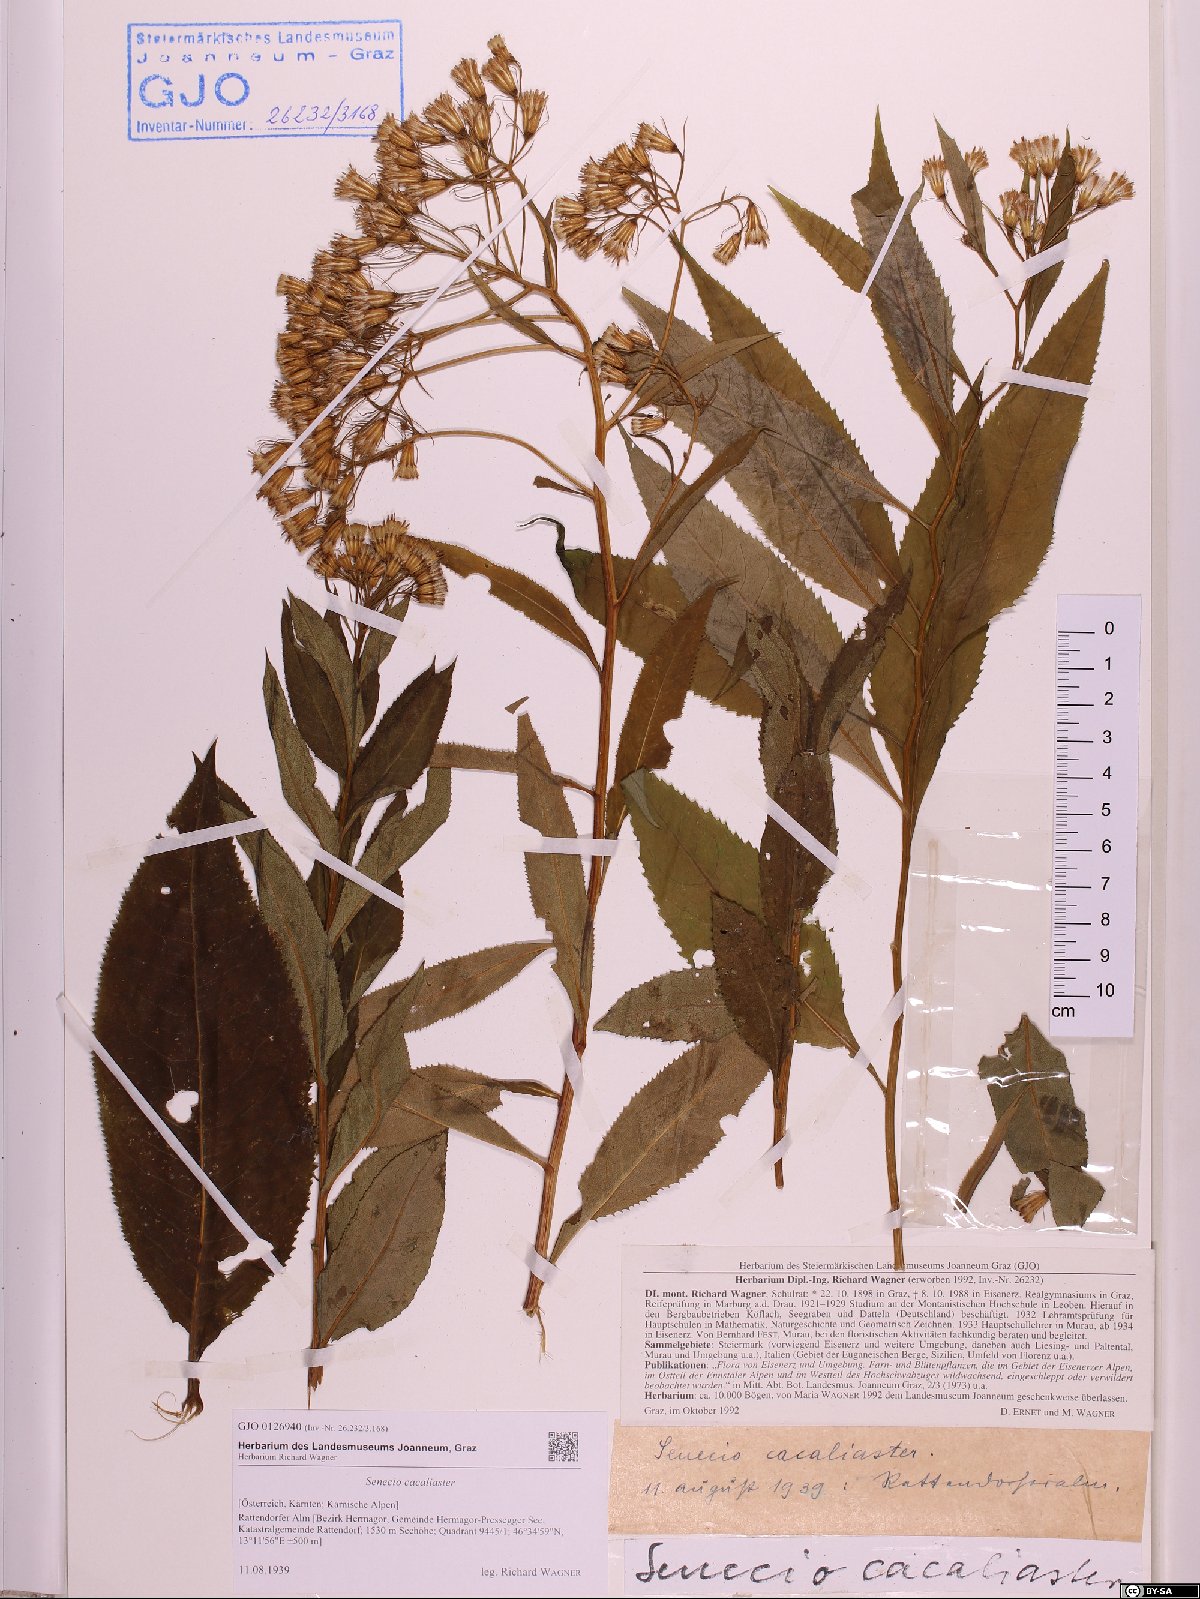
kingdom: Plantae
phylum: Tracheophyta
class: Magnoliopsida
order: Asterales
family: Asteraceae
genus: Senecio
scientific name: Senecio cacaliaster
